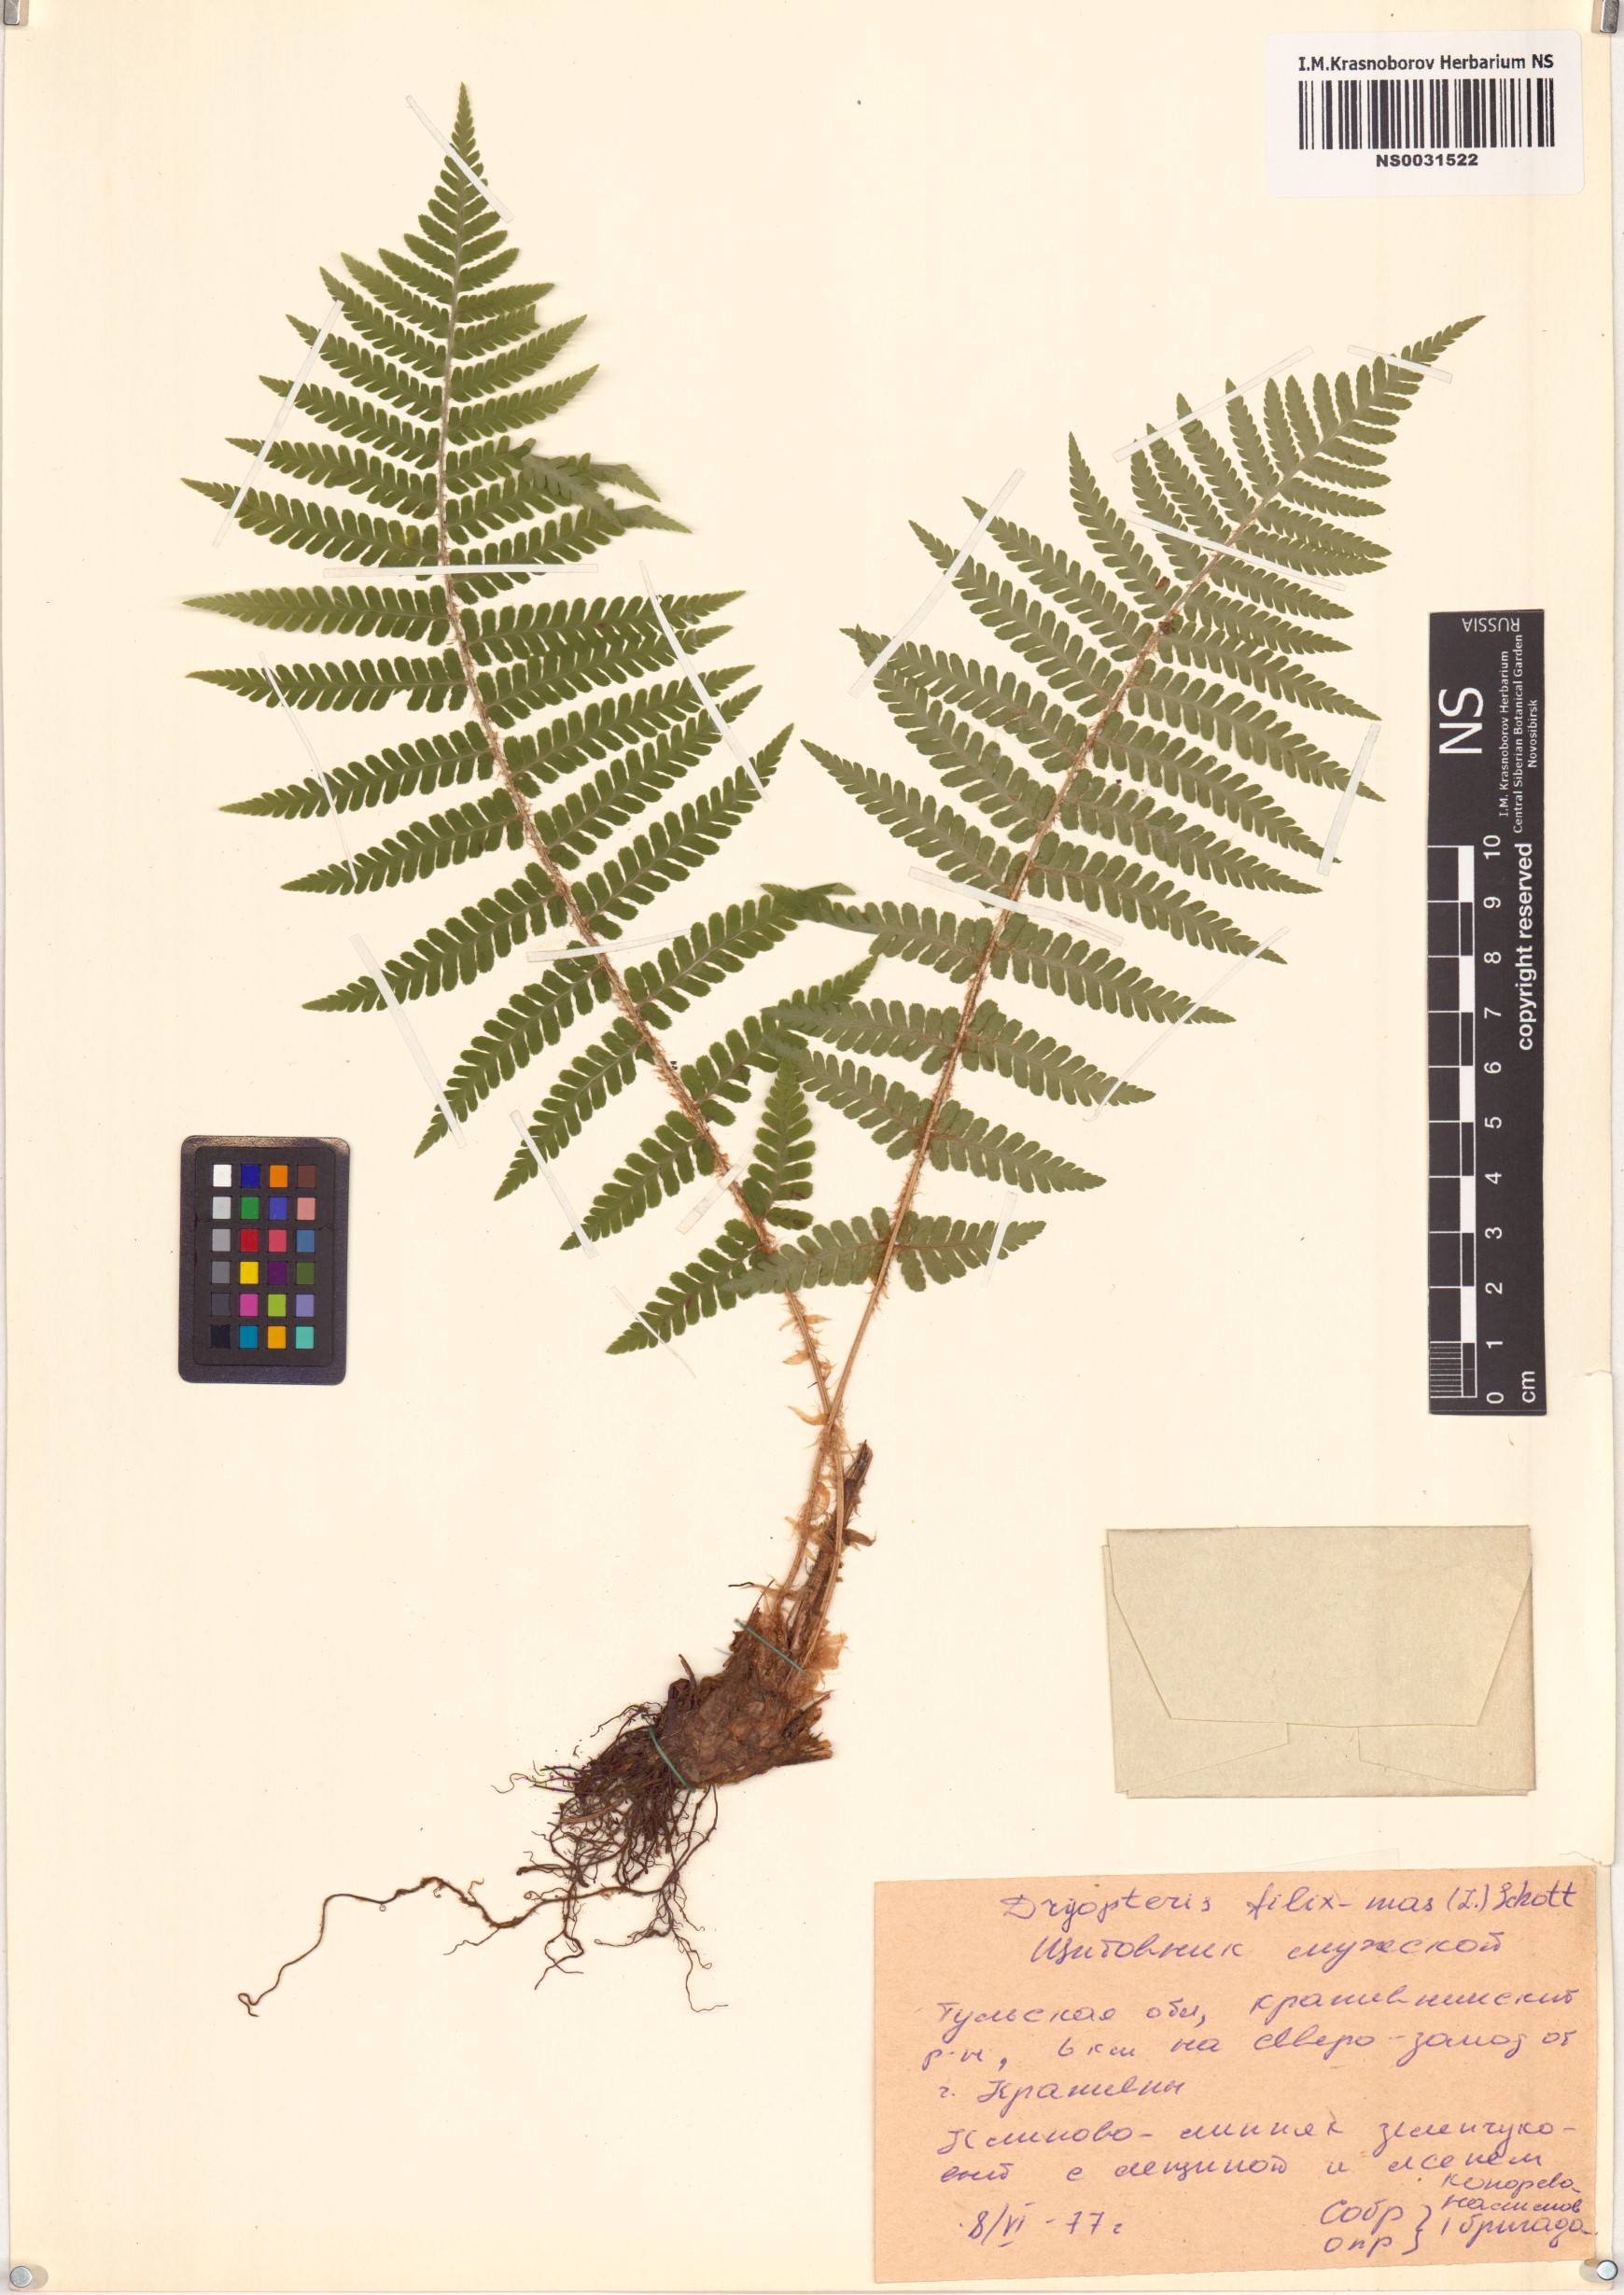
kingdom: Plantae
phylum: Tracheophyta
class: Polypodiopsida
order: Polypodiales
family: Dryopteridaceae
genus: Dryopteris
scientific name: Dryopteris filix-mas
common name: Male fern
